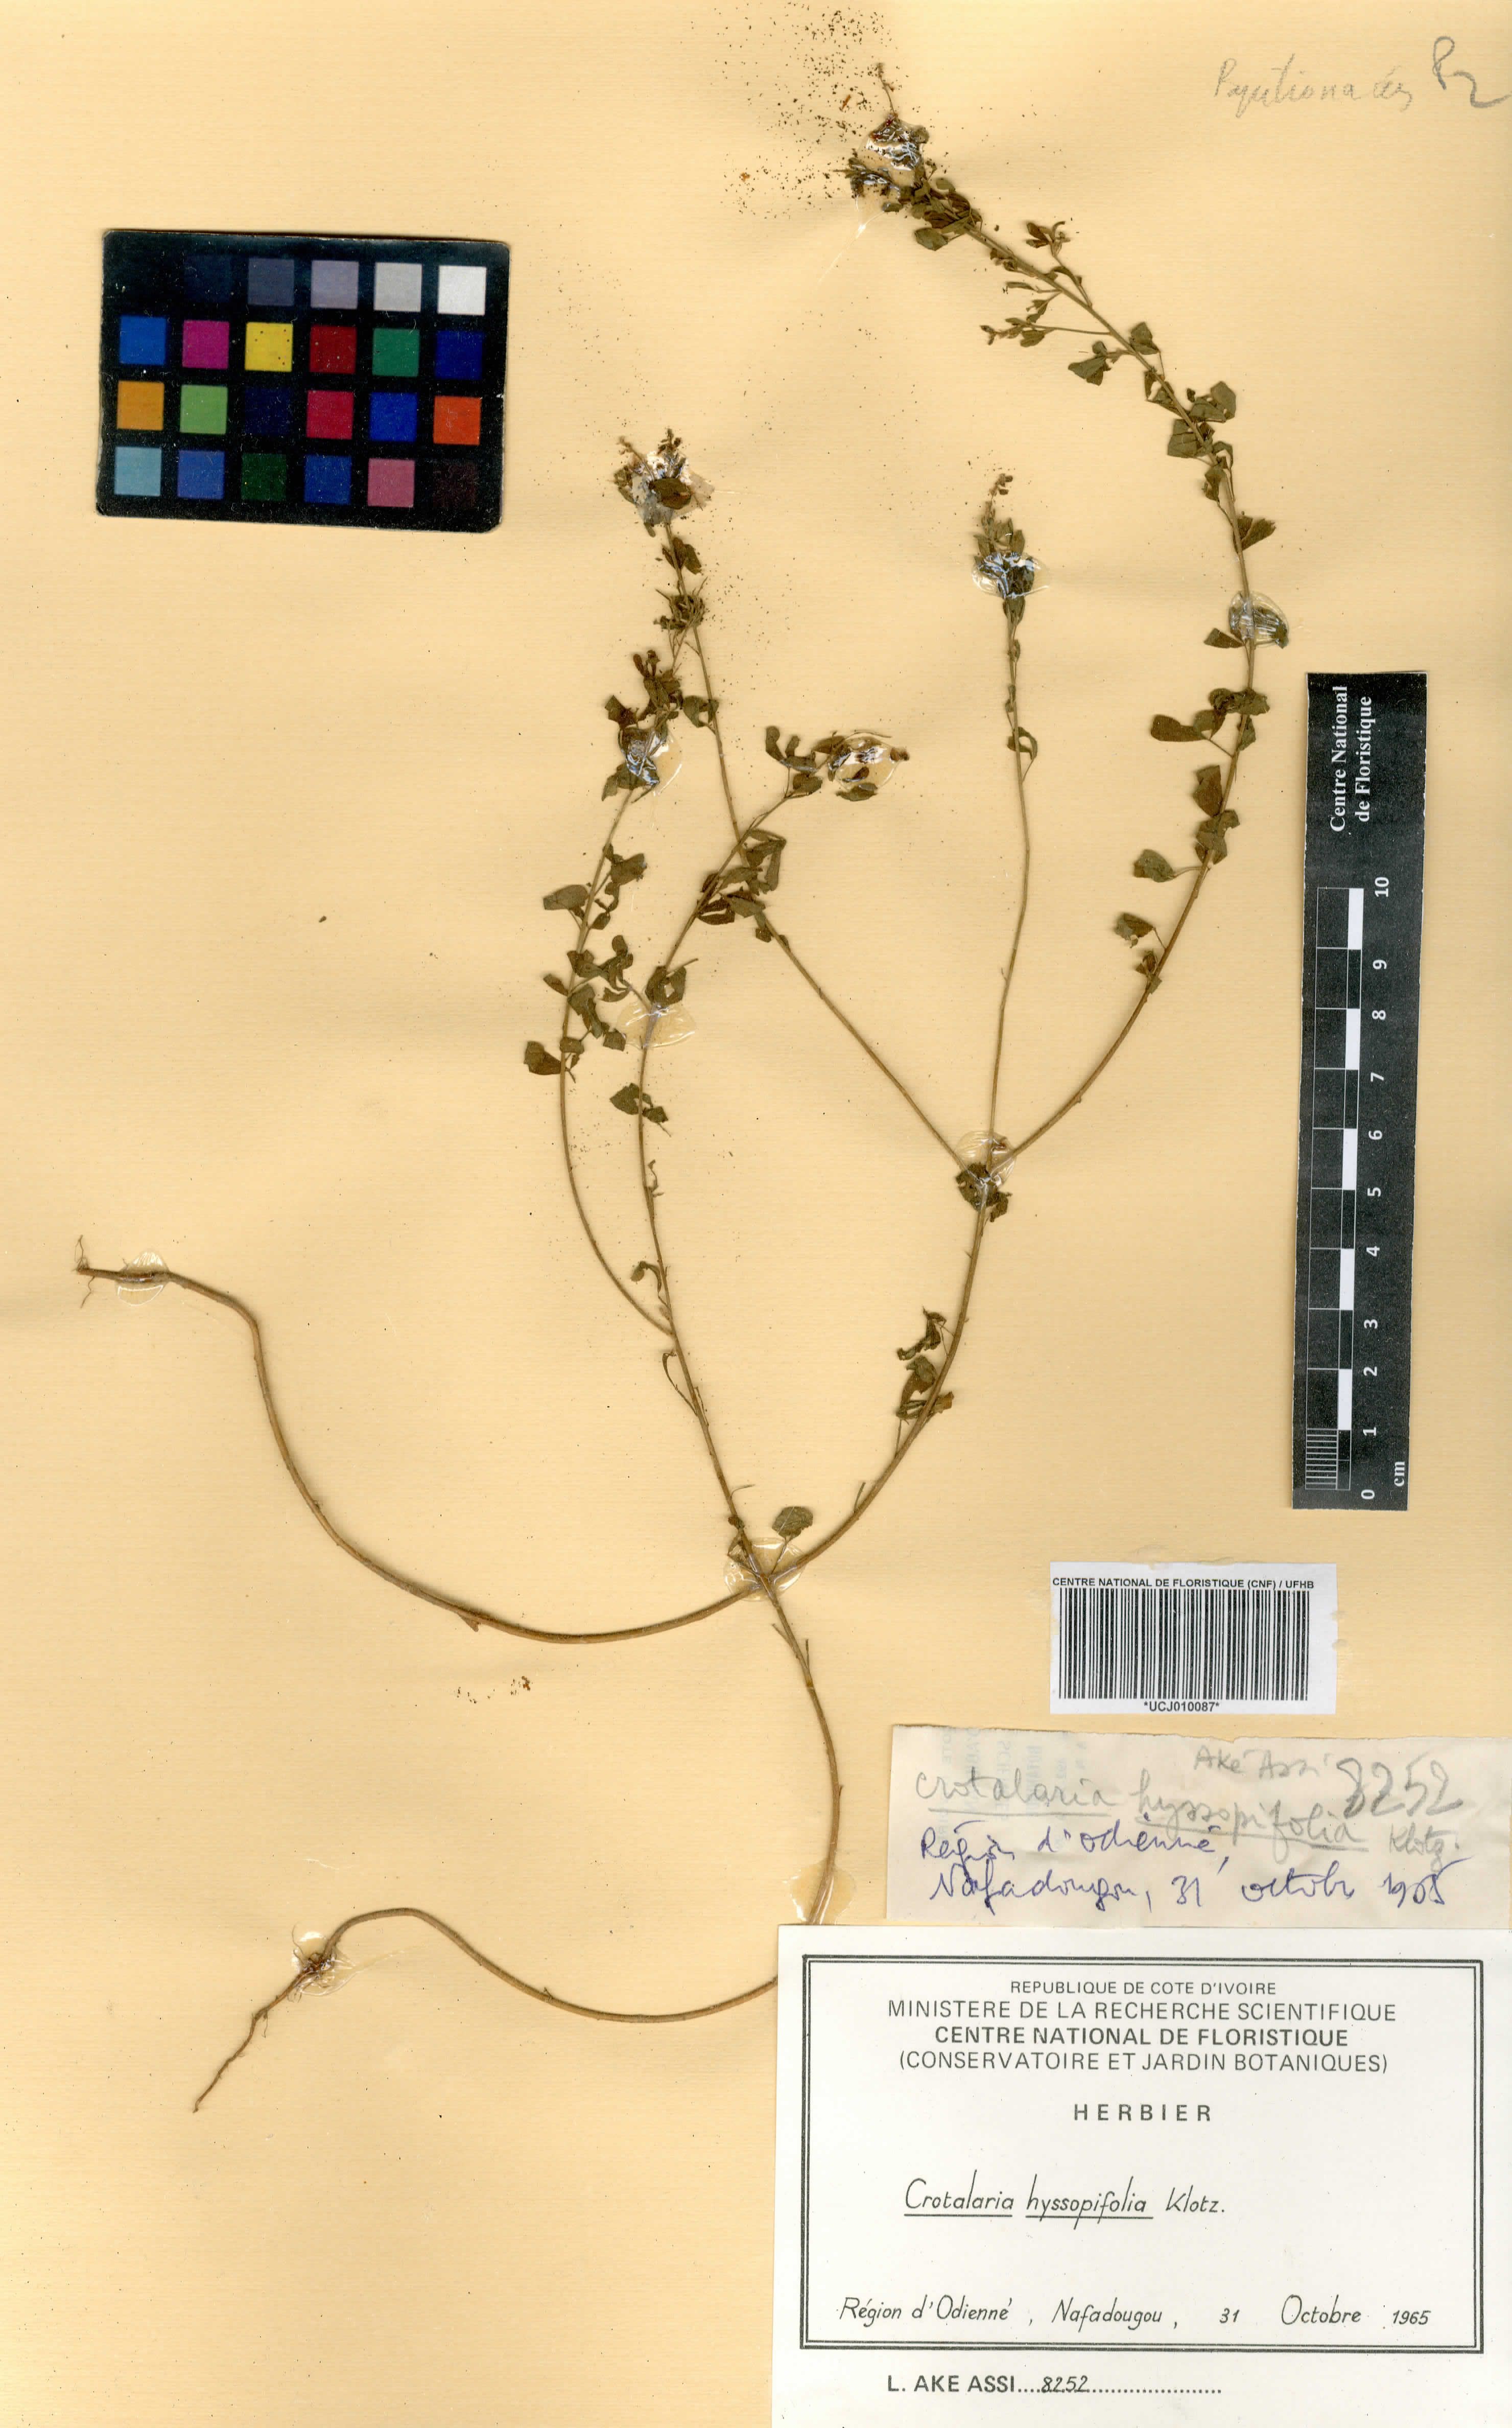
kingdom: Plantae
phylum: Tracheophyta
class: Magnoliopsida
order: Fabales
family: Fabaceae
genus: Crotalaria
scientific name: Crotalaria hyssopifolia
